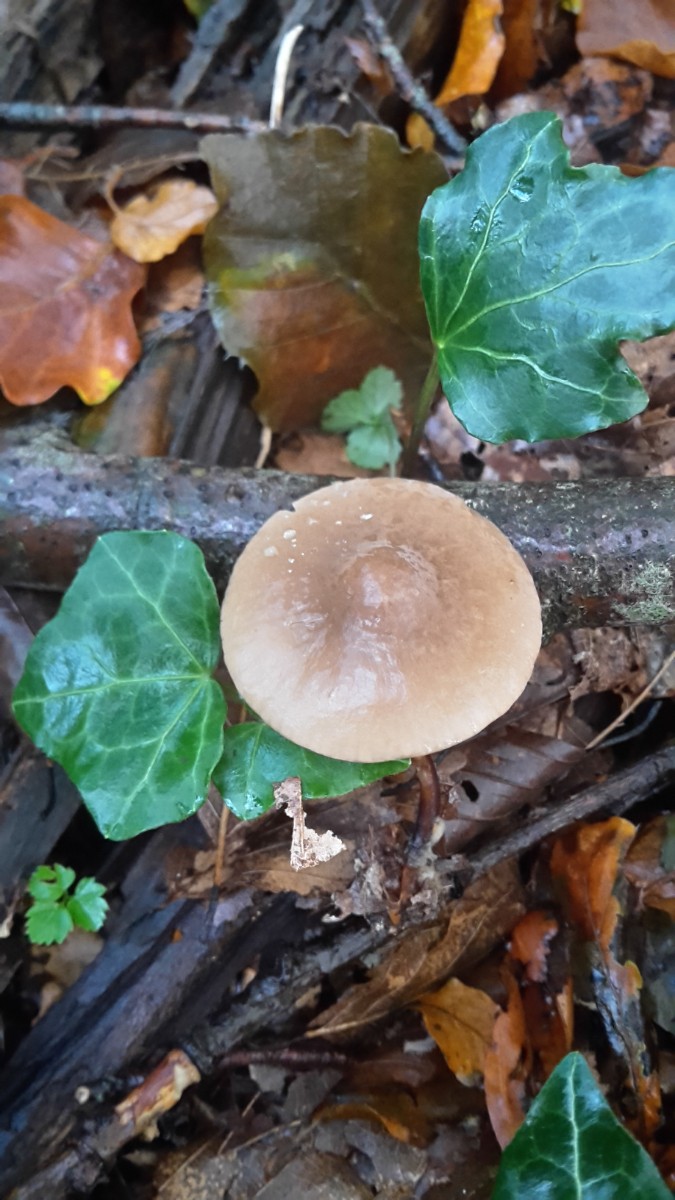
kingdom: Fungi
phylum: Basidiomycota
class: Agaricomycetes
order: Agaricales
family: Marasmiaceae
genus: Marasmius
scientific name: Marasmius cohaerens
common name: hornstokket bruskhat
